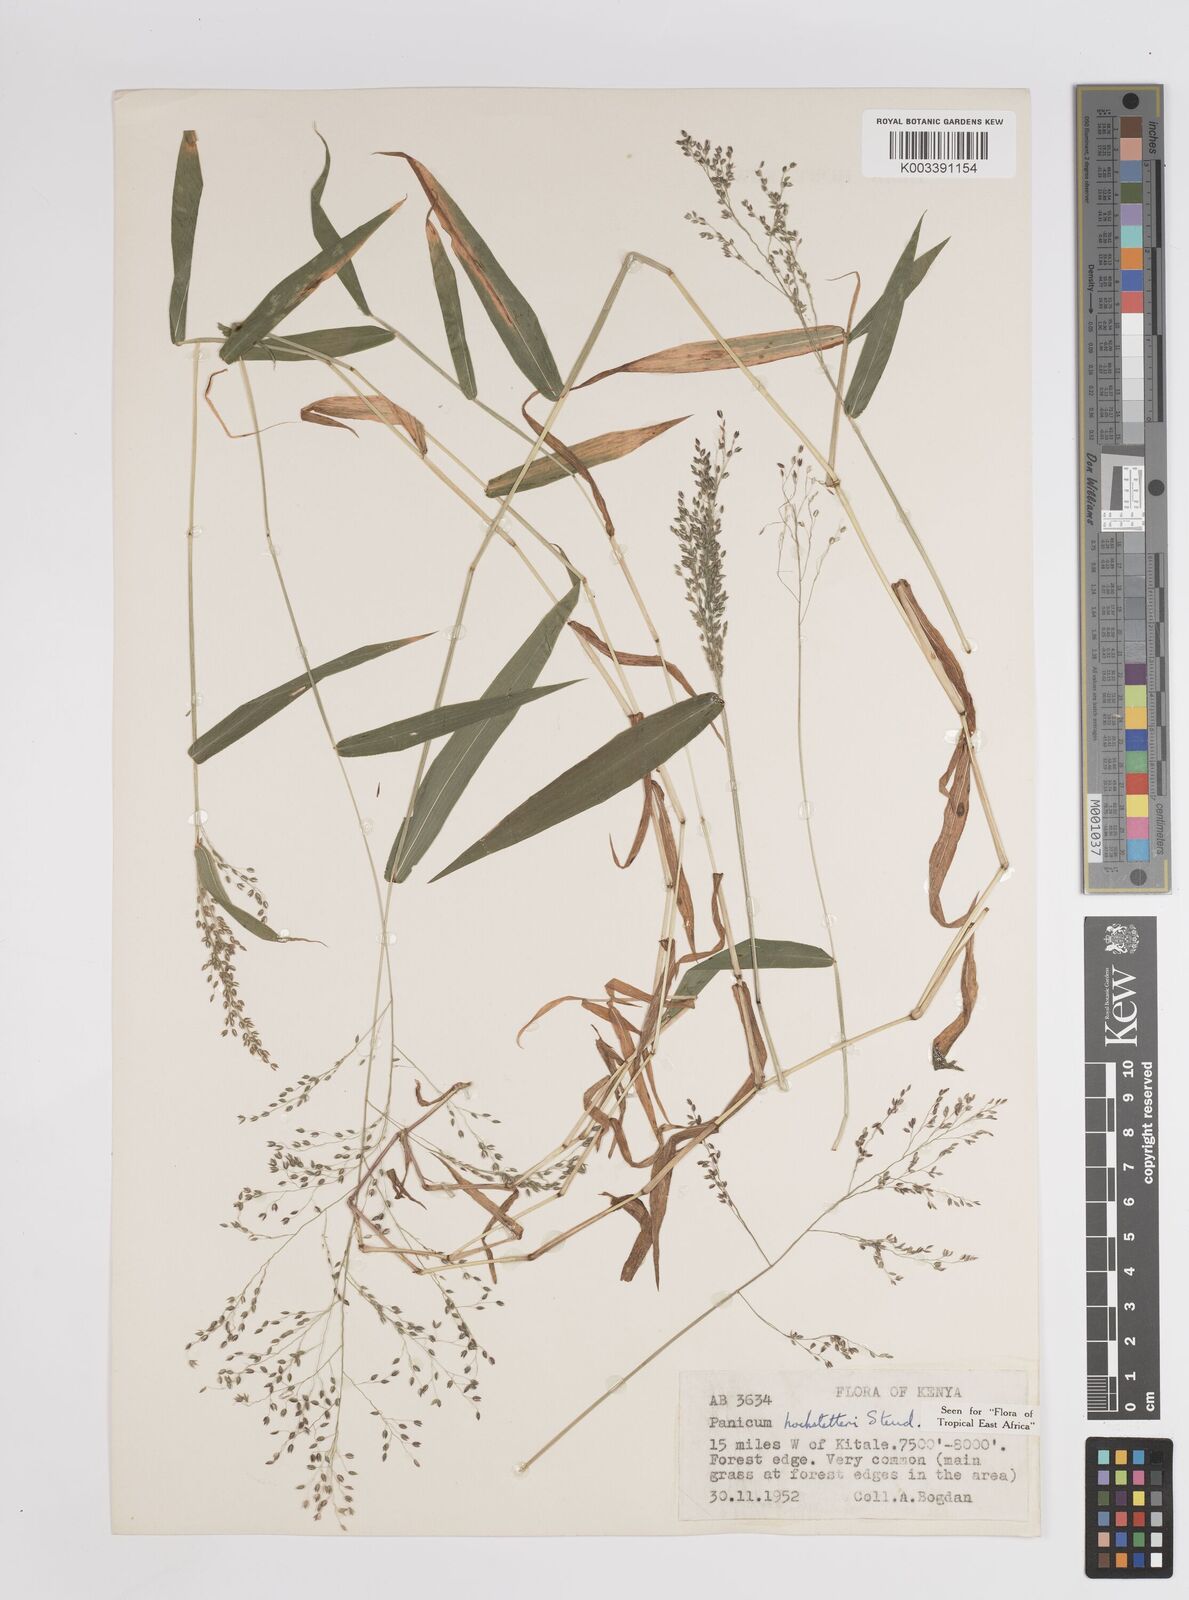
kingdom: Plantae
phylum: Tracheophyta
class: Liliopsida
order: Poales
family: Poaceae
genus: Panicum
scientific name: Panicum hochstetteri
